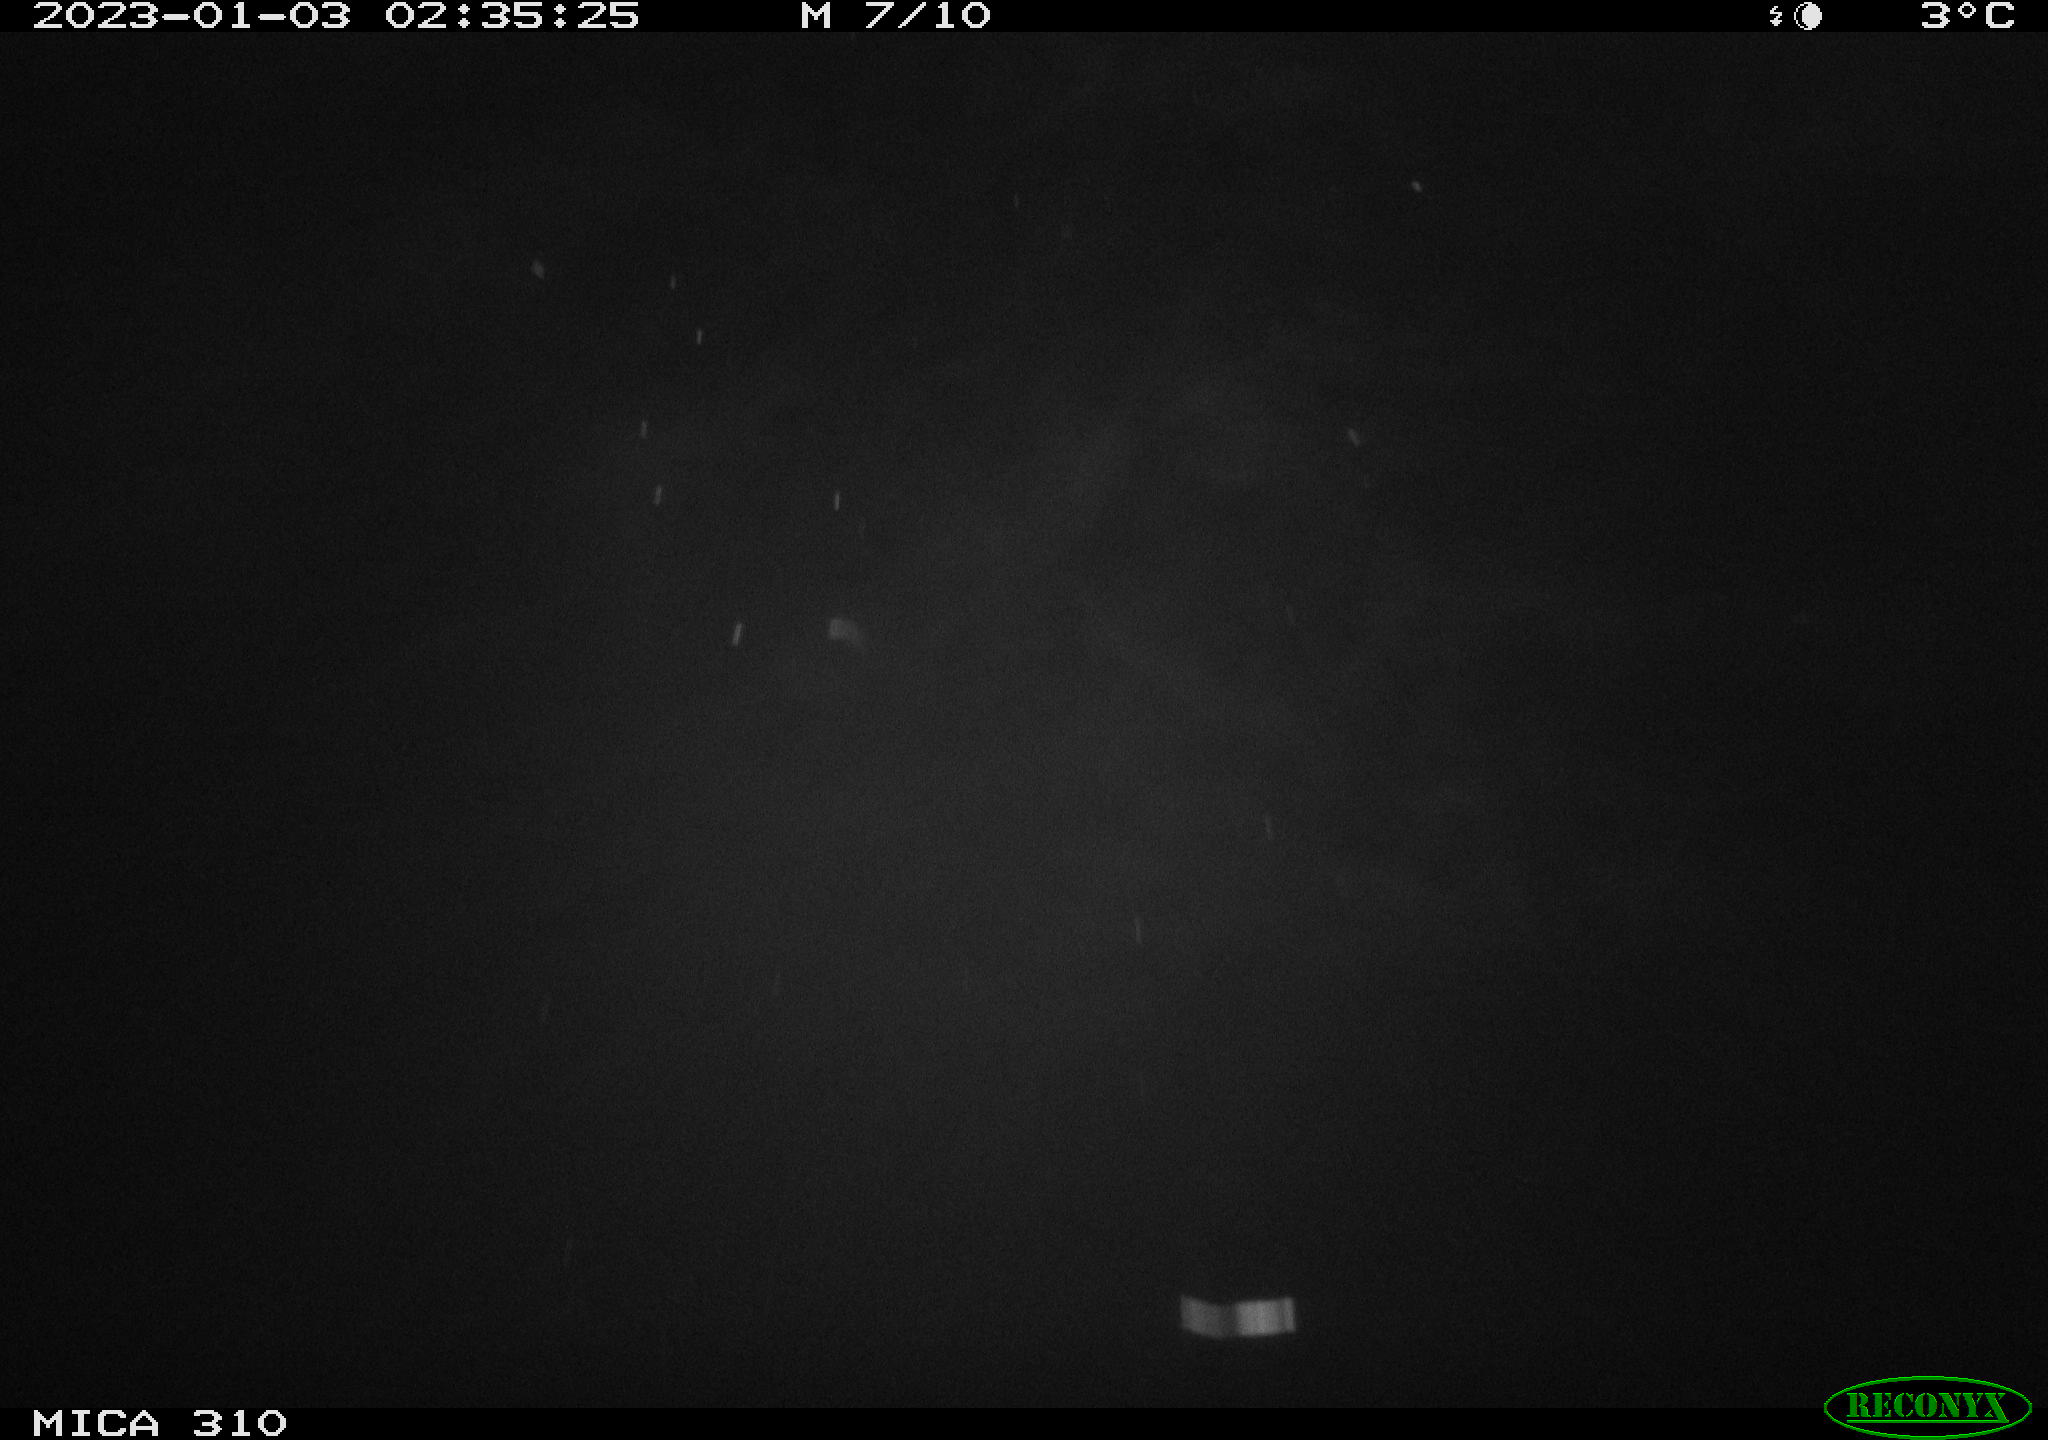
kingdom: Animalia
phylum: Chordata
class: Mammalia
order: Rodentia
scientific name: Rodentia
